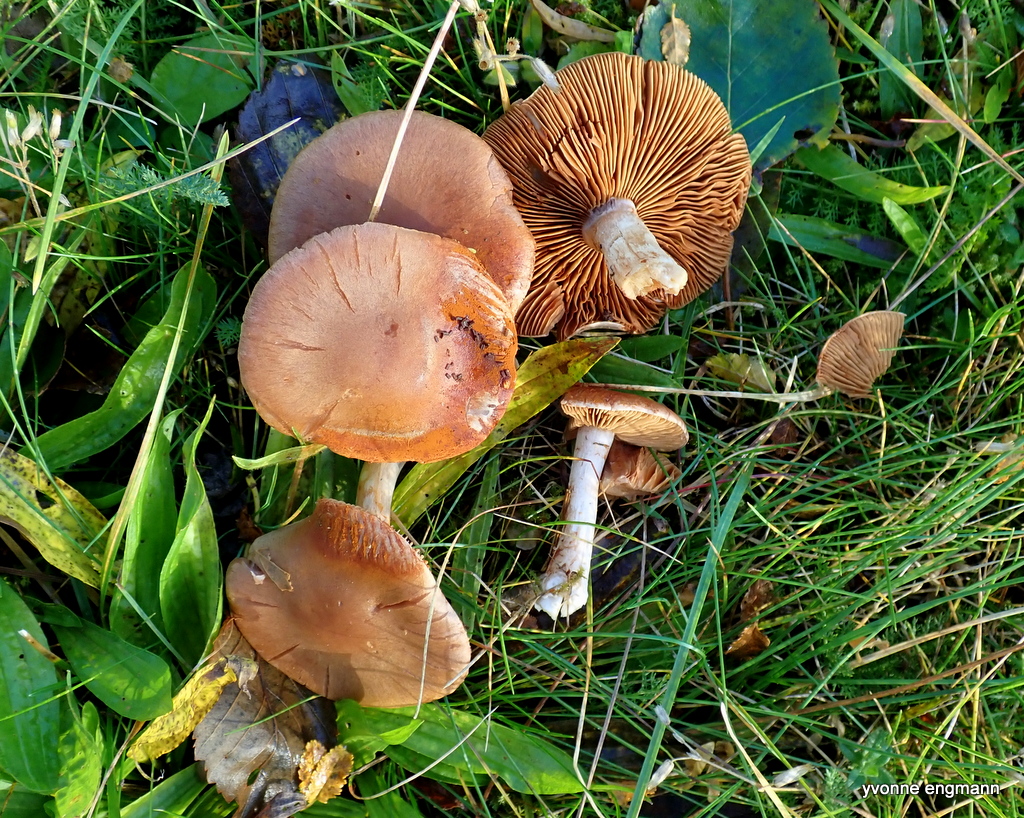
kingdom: Fungi
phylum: Basidiomycota
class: Agaricomycetes
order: Agaricales
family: Cortinariaceae
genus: Cortinarius
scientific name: Cortinarius
